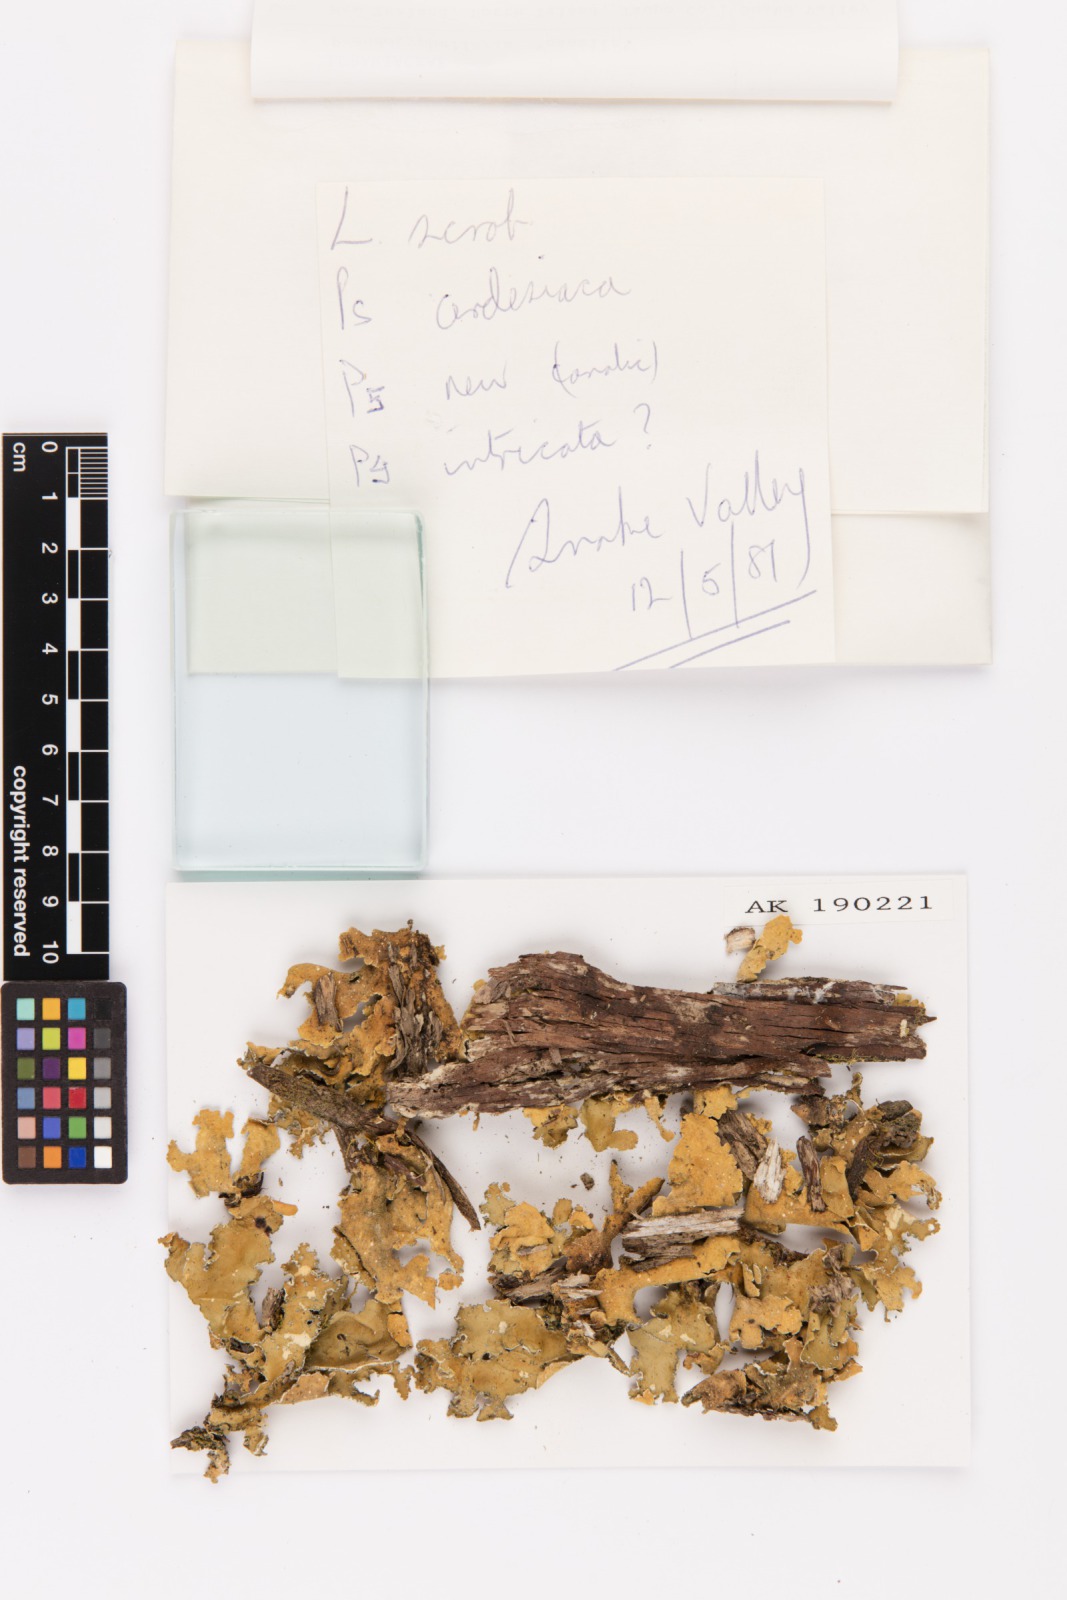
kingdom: Fungi
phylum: Ascomycota
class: Lecanoromycetes
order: Peltigerales
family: Lobariaceae
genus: Pseudocyphellaria
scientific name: Pseudocyphellaria
